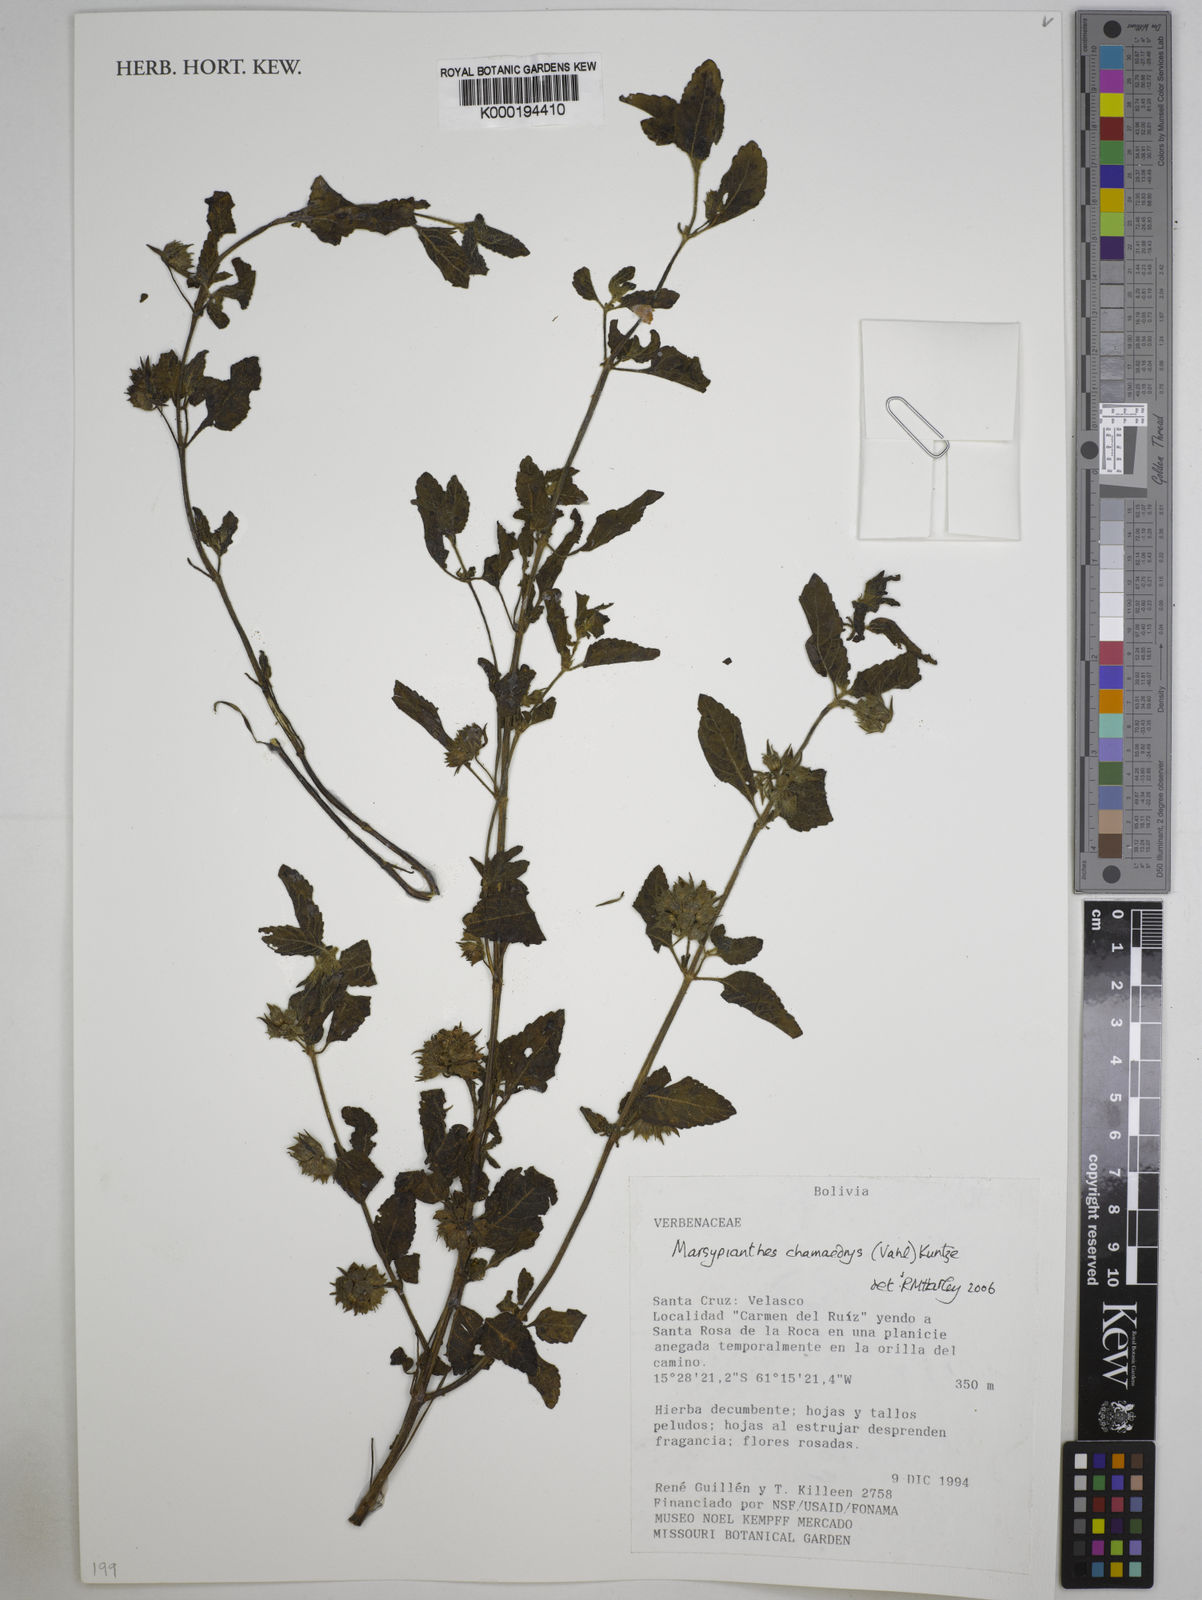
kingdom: Plantae
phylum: Tracheophyta
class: Magnoliopsida
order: Lamiales
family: Lamiaceae
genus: Marsypianthes
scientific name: Marsypianthes chamaedrys
